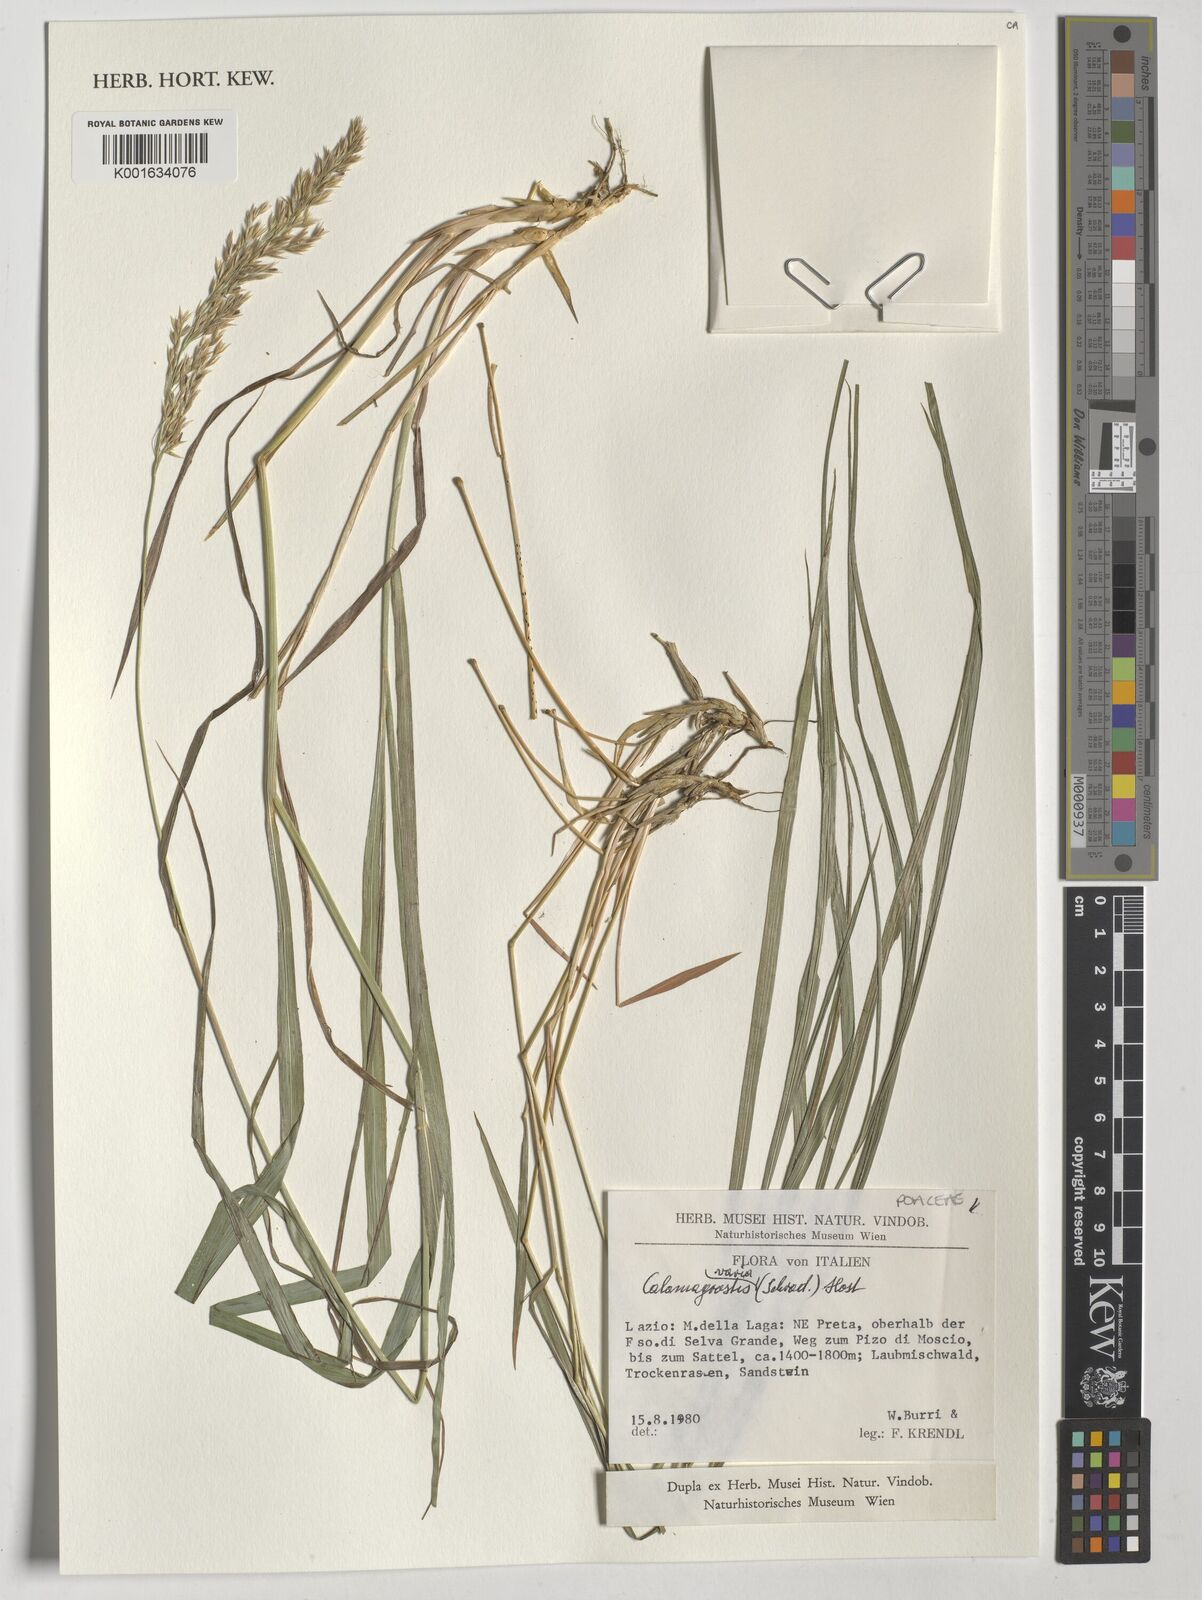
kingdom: Plantae
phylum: Tracheophyta
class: Liliopsida
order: Poales
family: Poaceae
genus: Calamagrostis
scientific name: Calamagrostis varia
